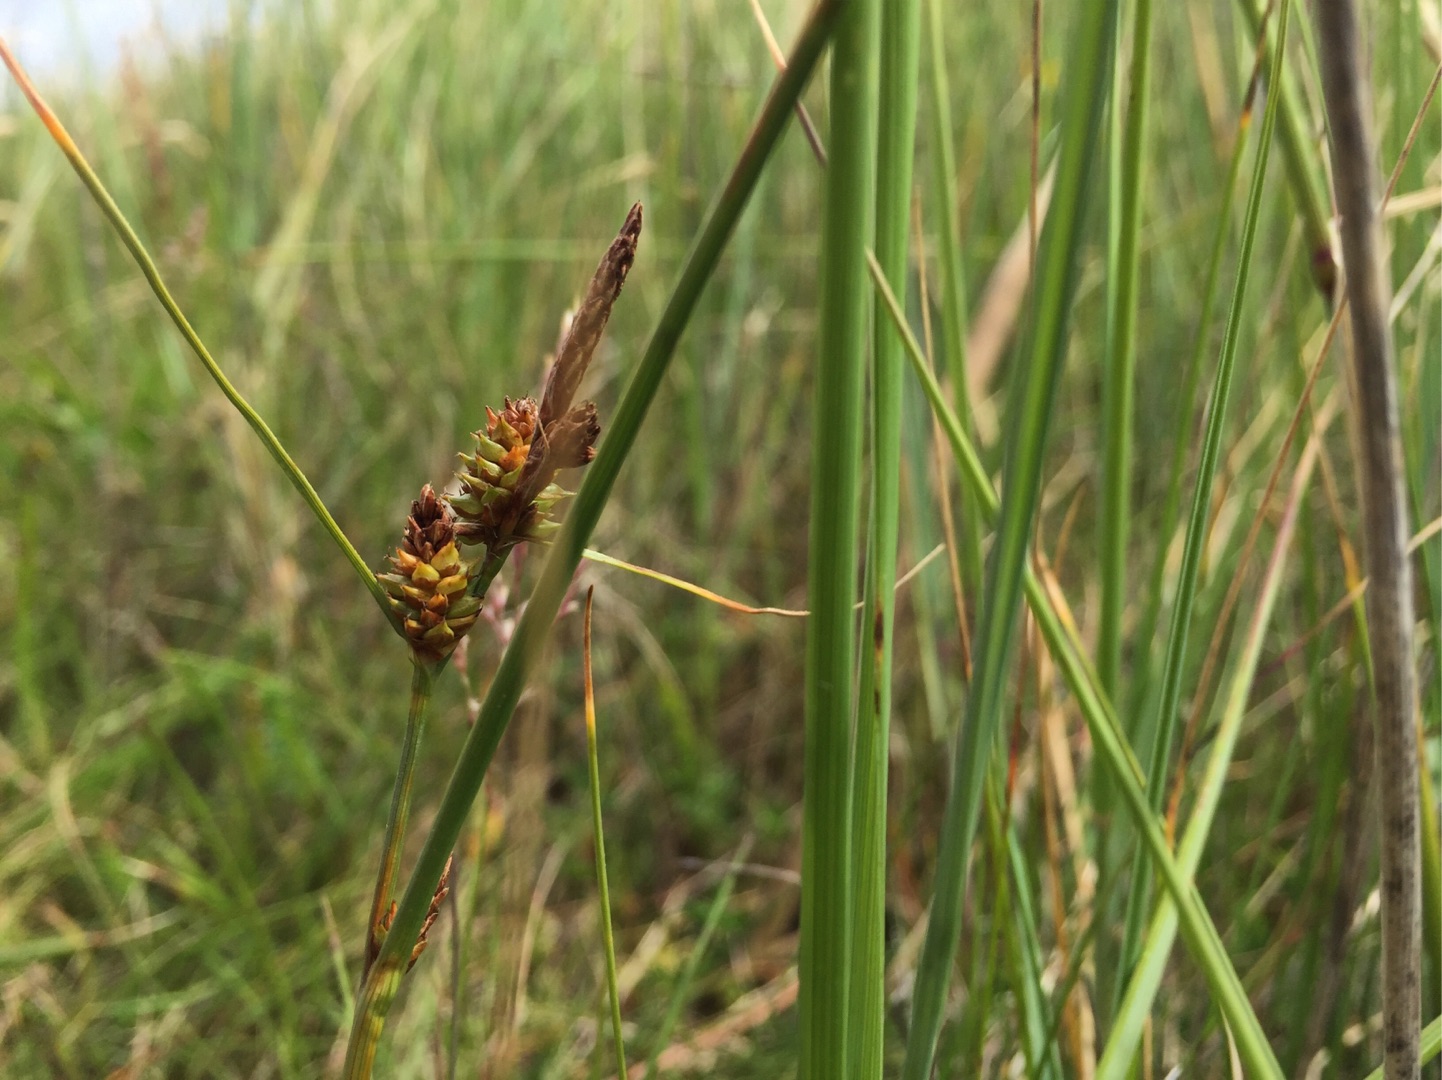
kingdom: Plantae
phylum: Tracheophyta
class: Liliopsida
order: Poales
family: Cyperaceae
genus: Carex
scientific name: Carex extensa
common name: Udspilet star
